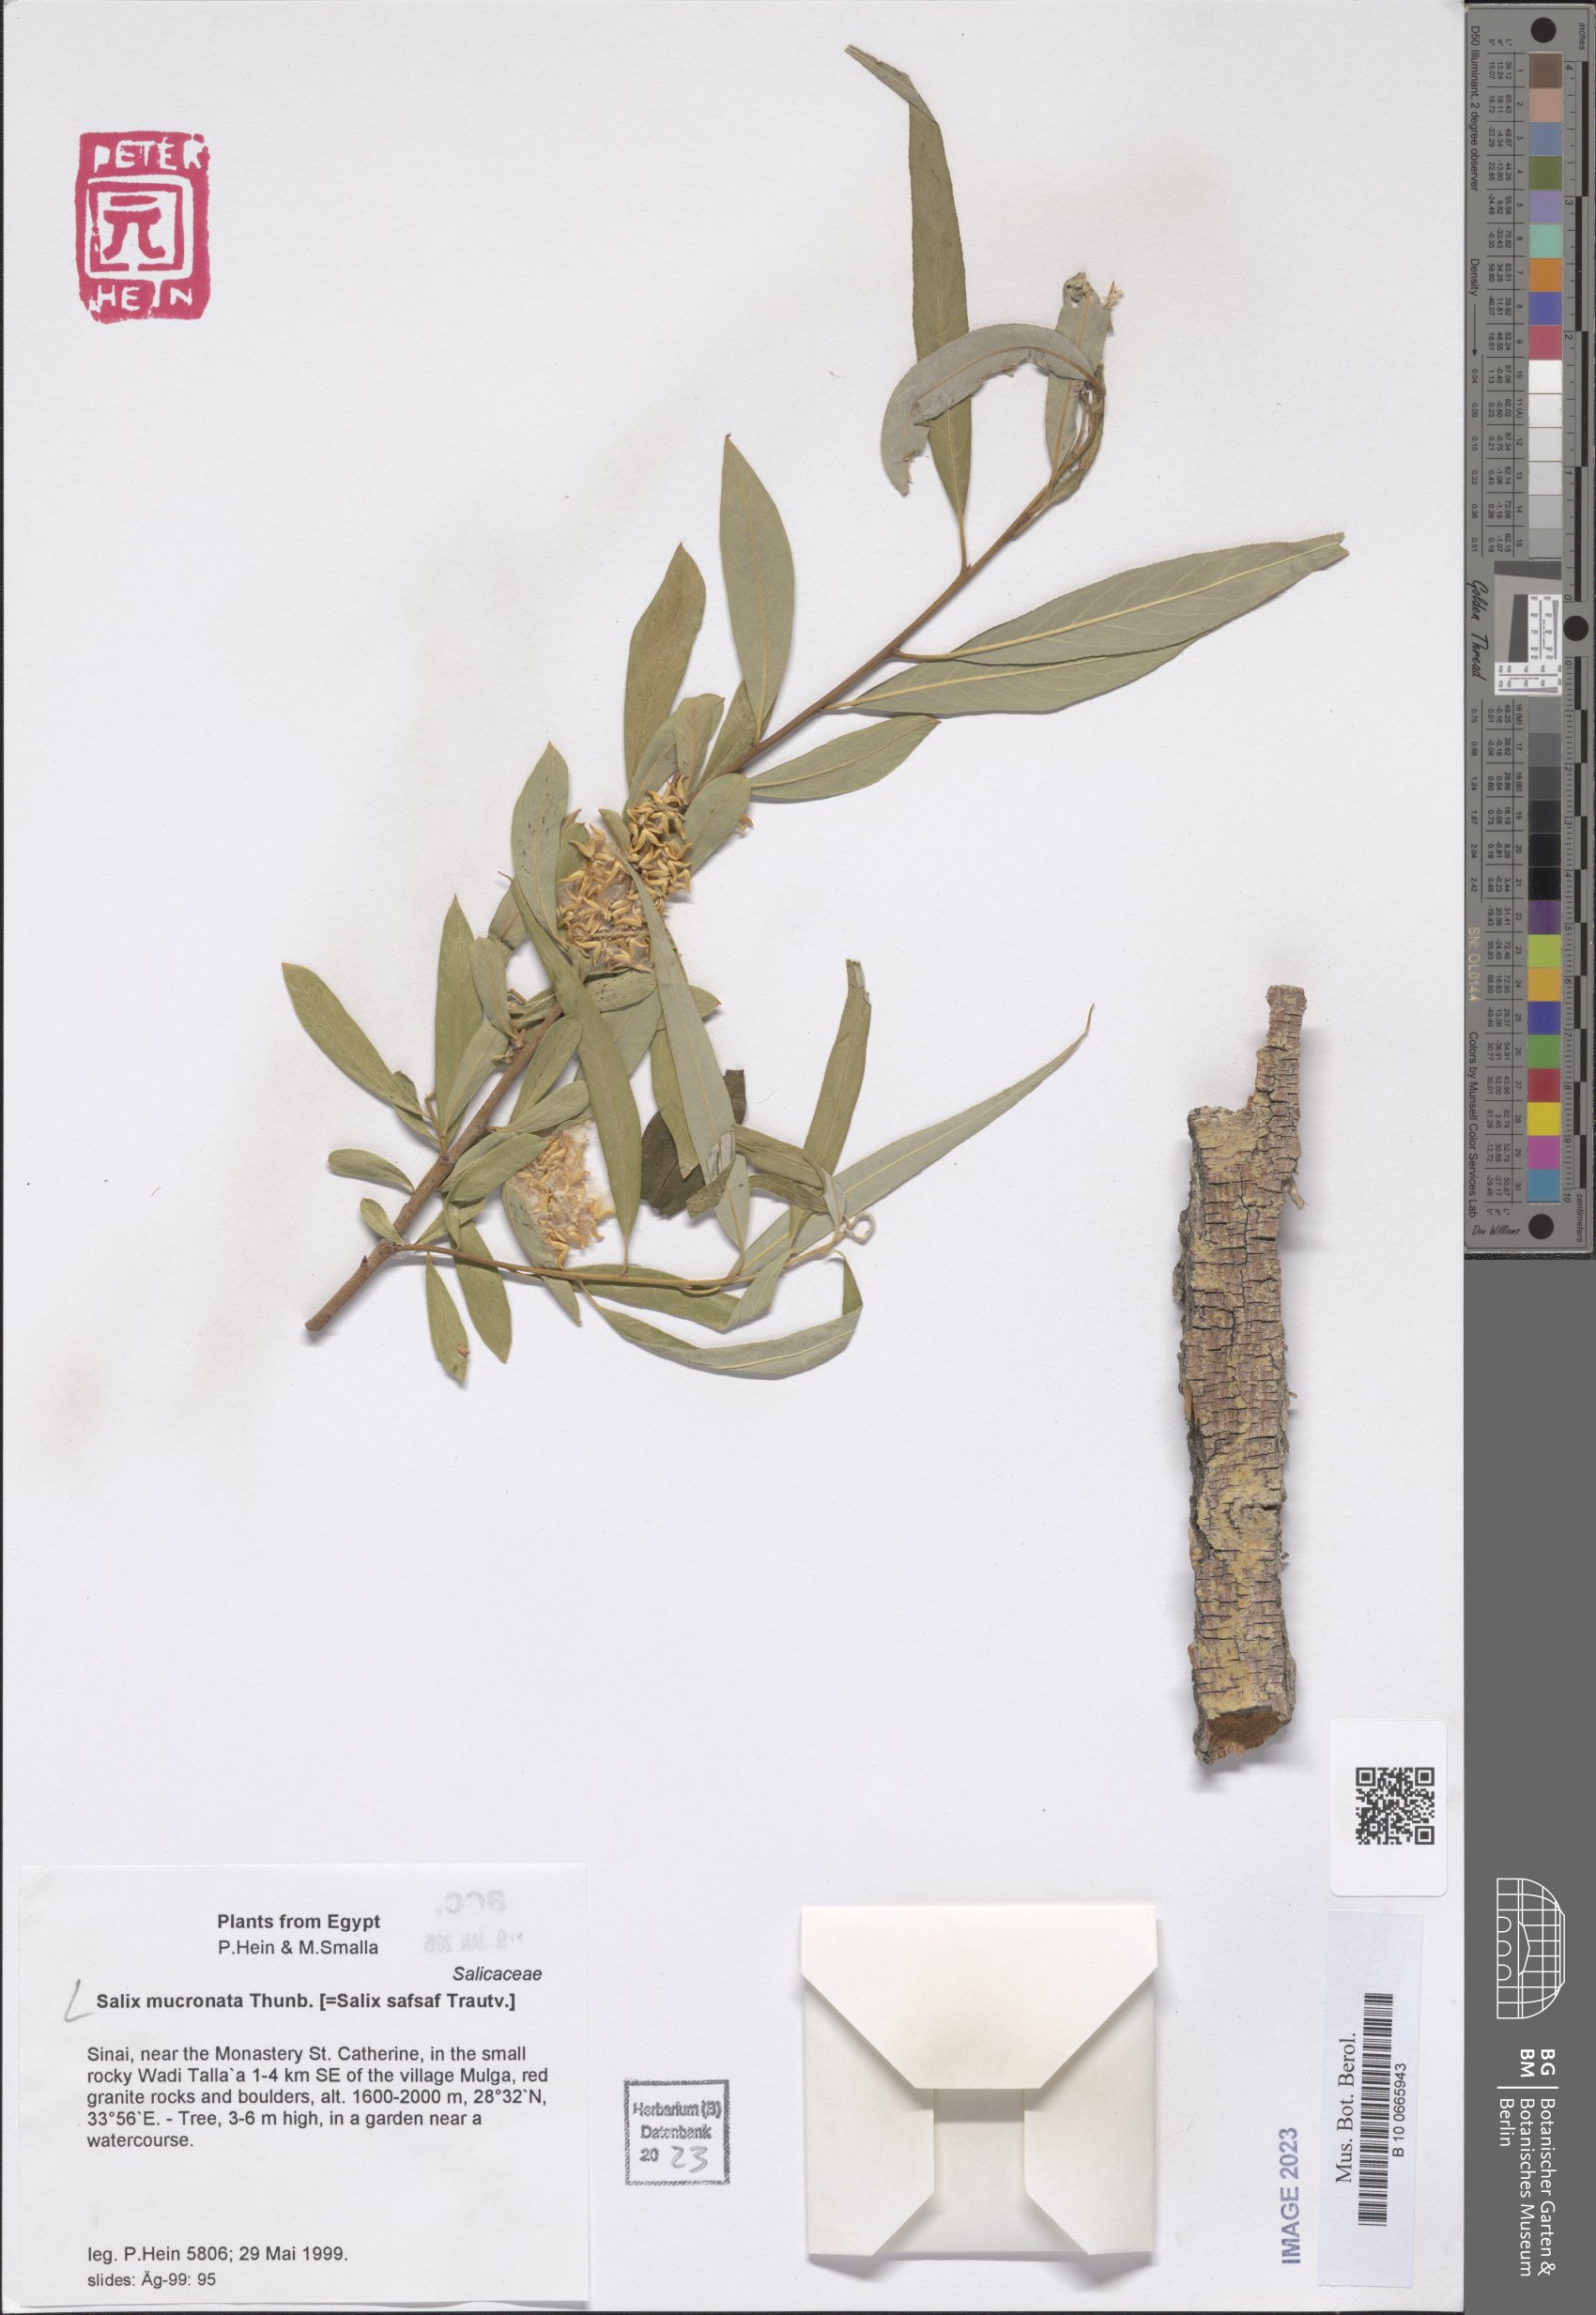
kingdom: Plantae
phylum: Tracheophyta
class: Magnoliopsida
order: Malpighiales
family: Salicaceae
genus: Salix
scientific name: Salix mucronata
